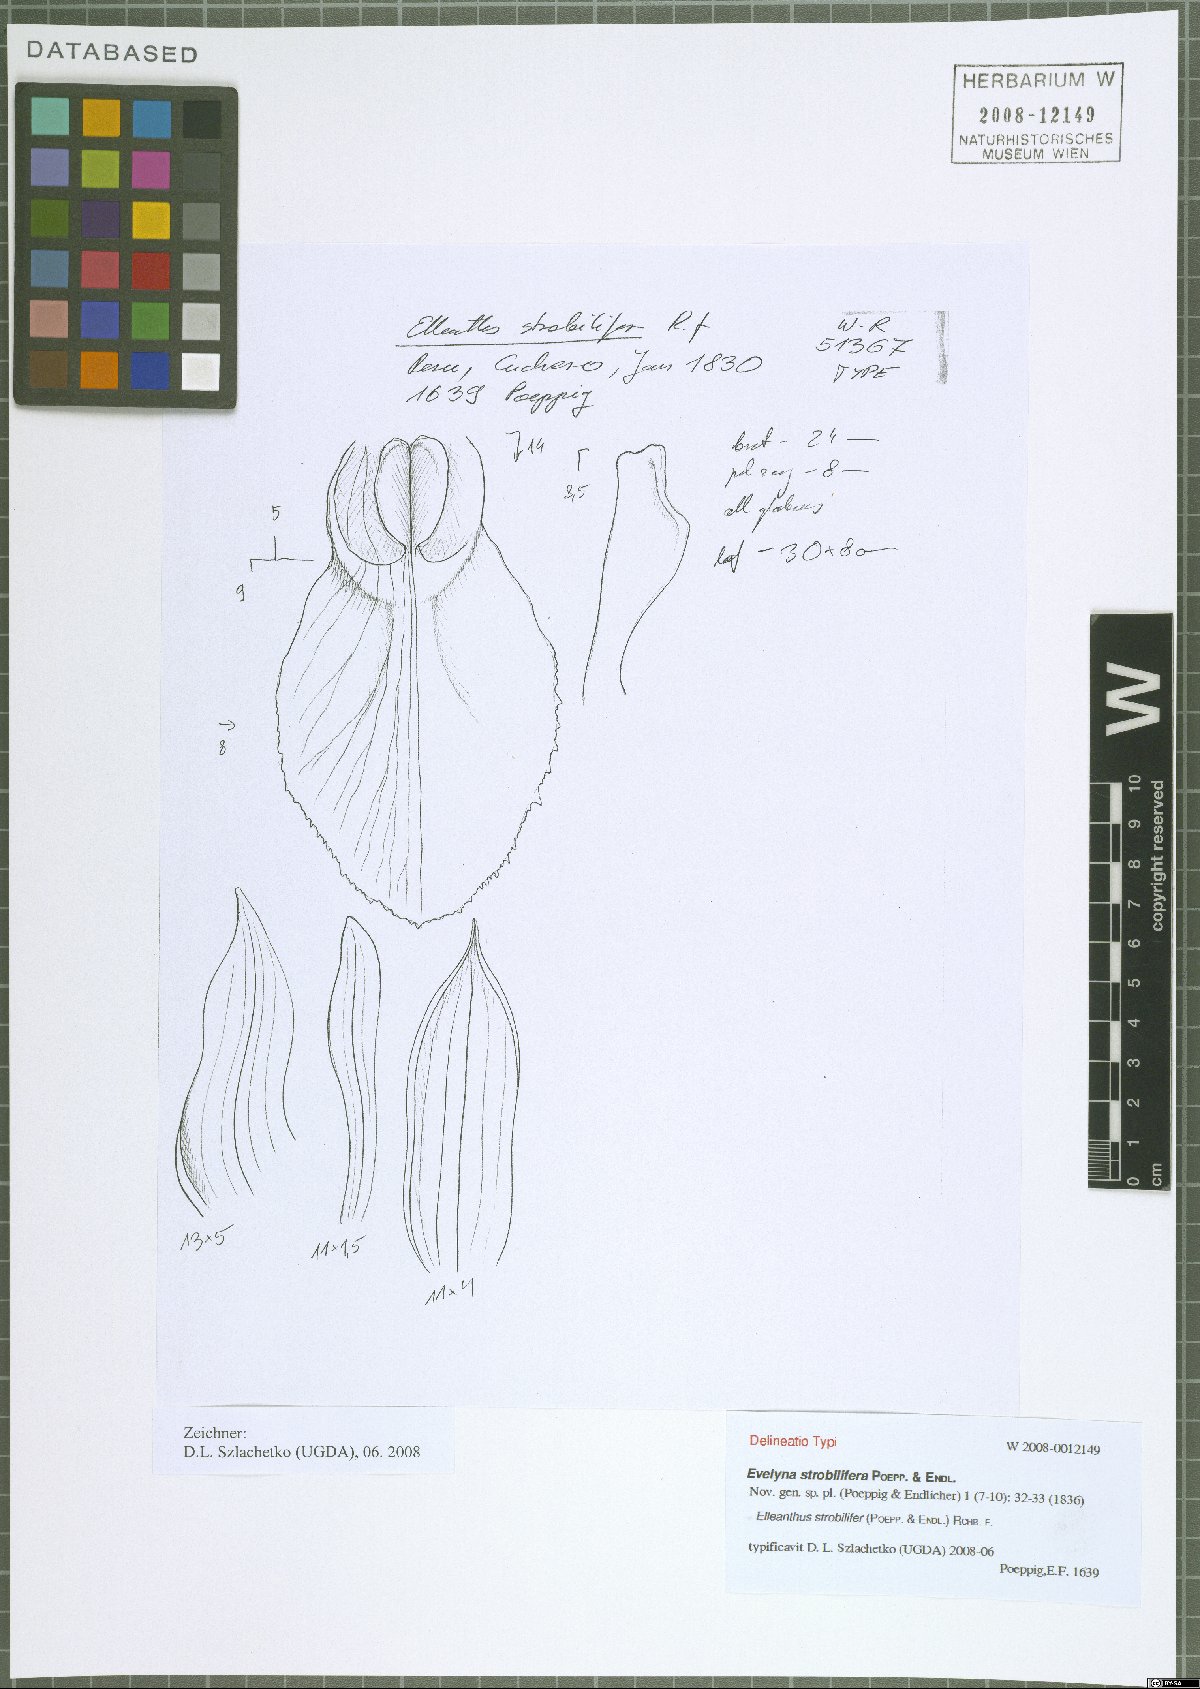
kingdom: Plantae
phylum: Tracheophyta
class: Liliopsida
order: Asparagales
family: Orchidaceae
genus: Elleanthus
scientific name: Elleanthus strobilifer
